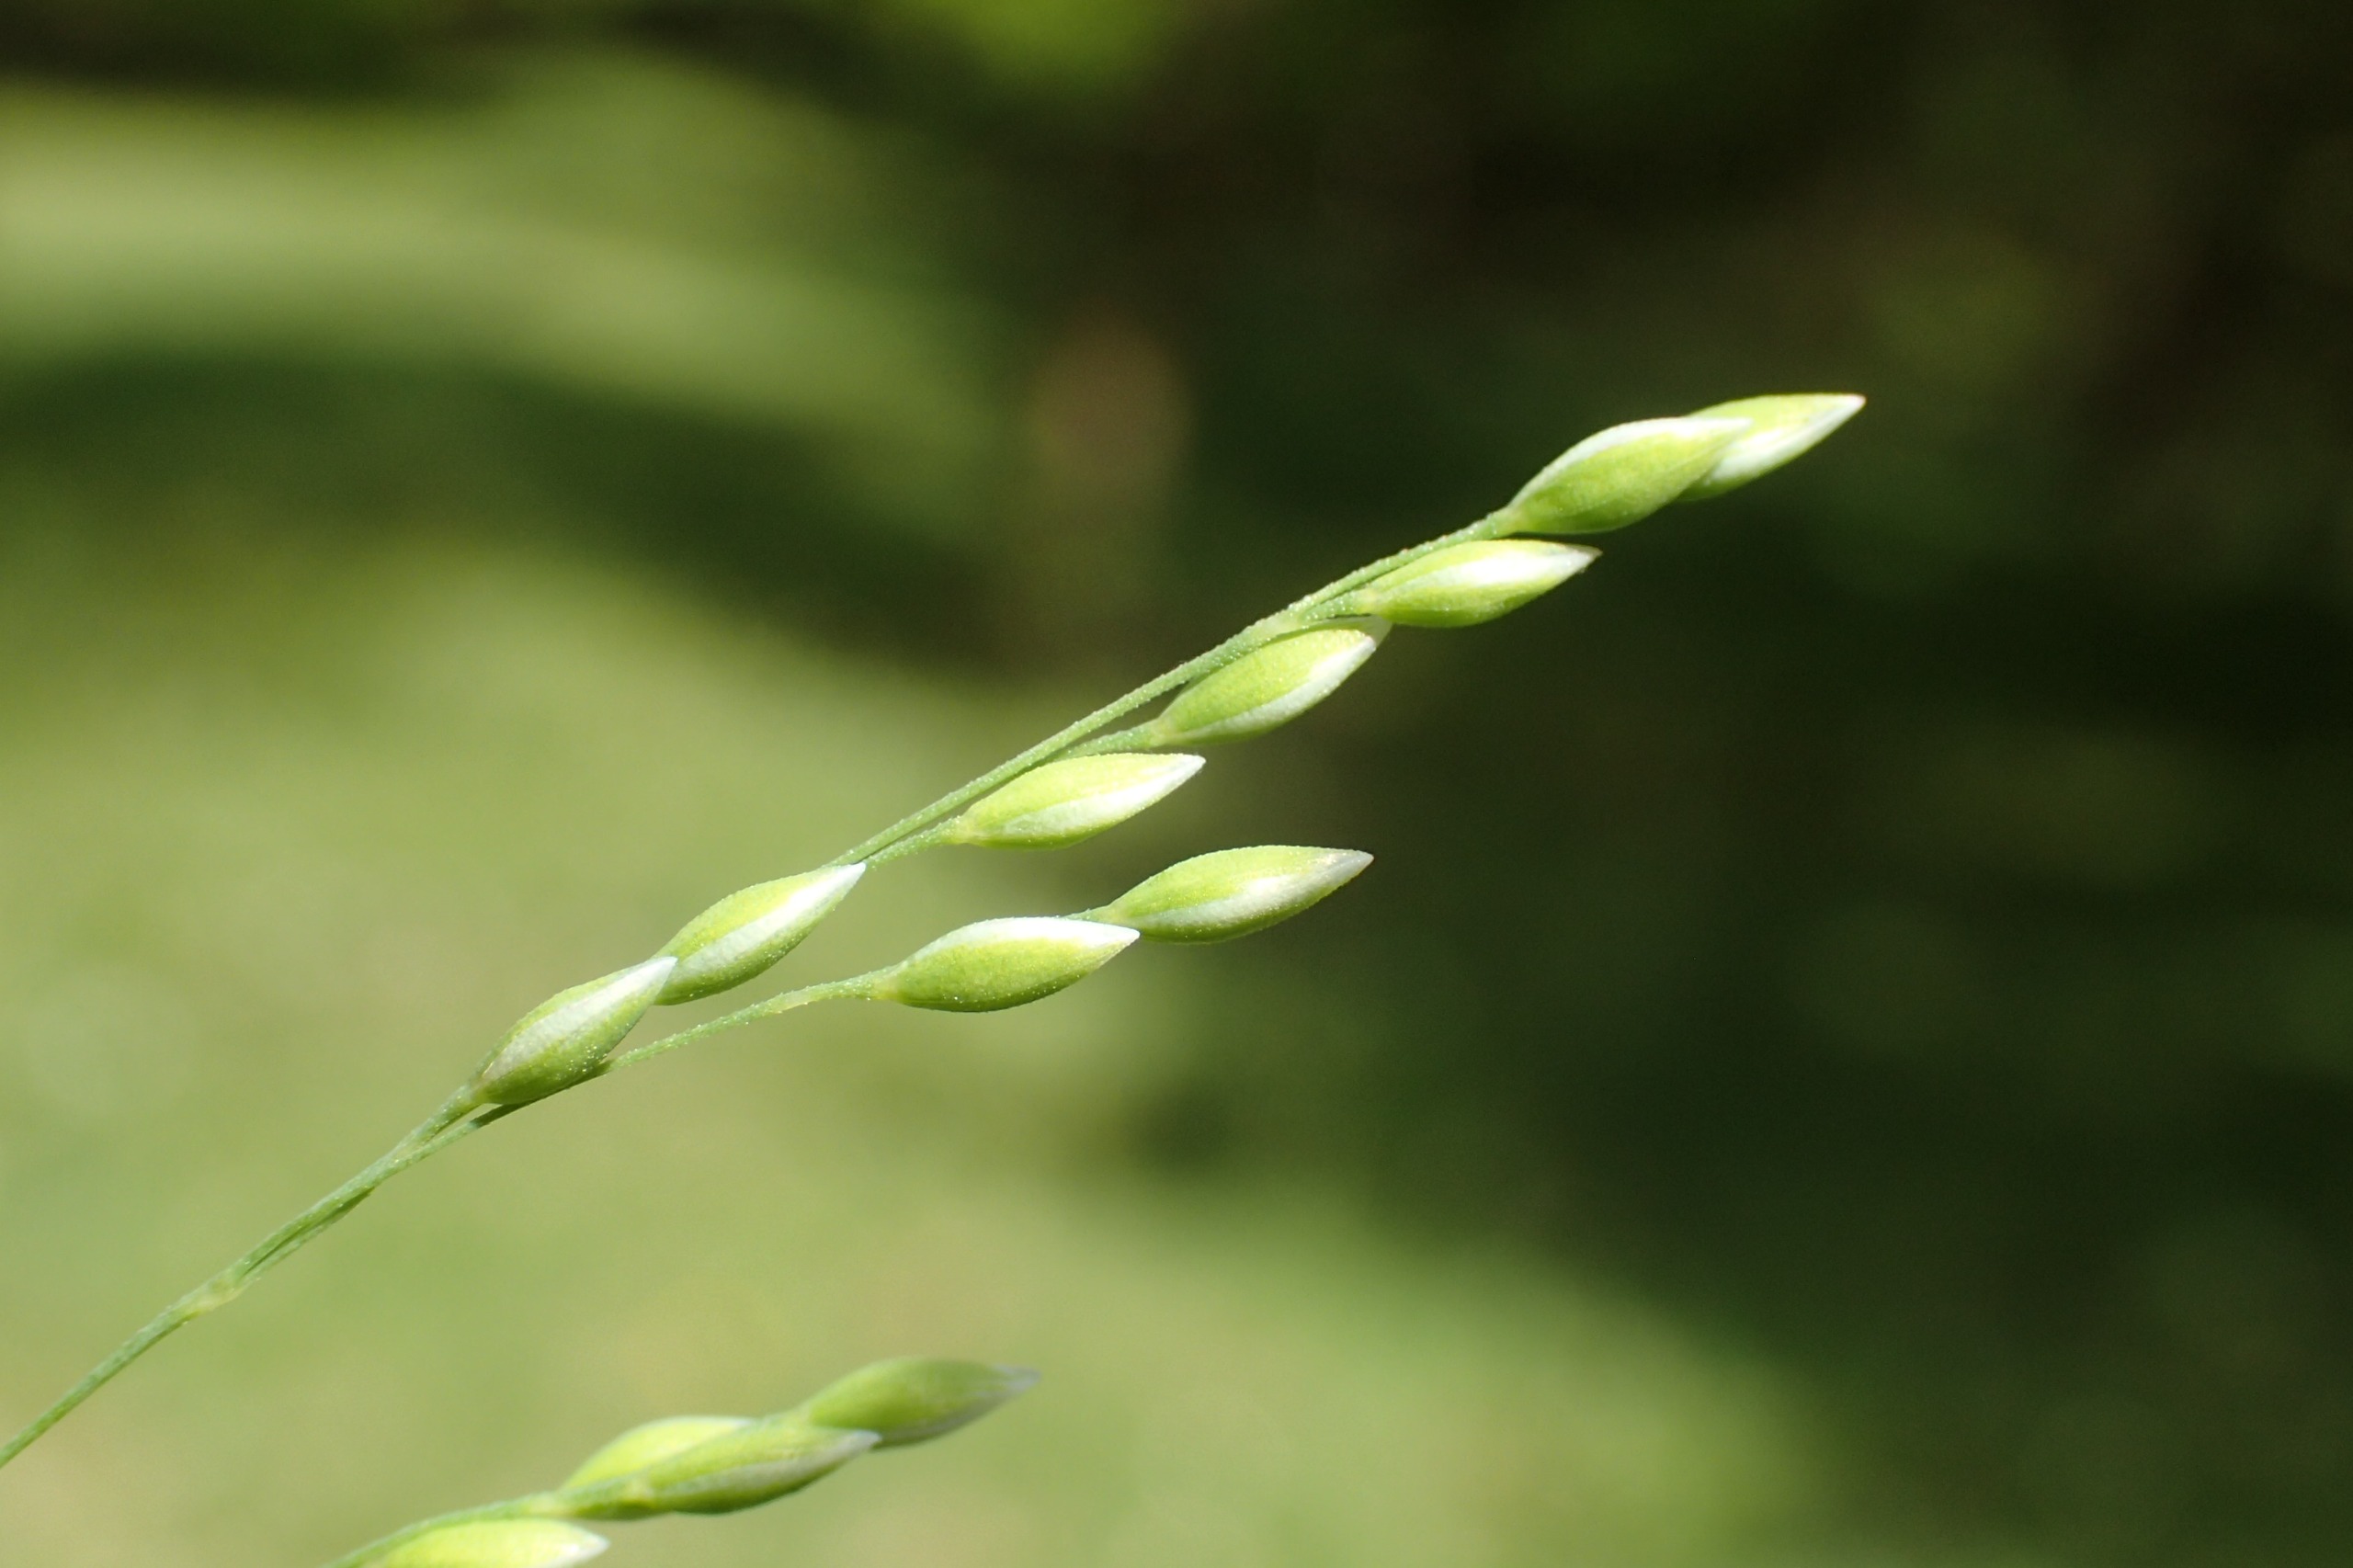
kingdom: Plantae
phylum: Tracheophyta
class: Liliopsida
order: Poales
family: Poaceae
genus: Milium
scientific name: Milium effusum
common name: Miliegræs
